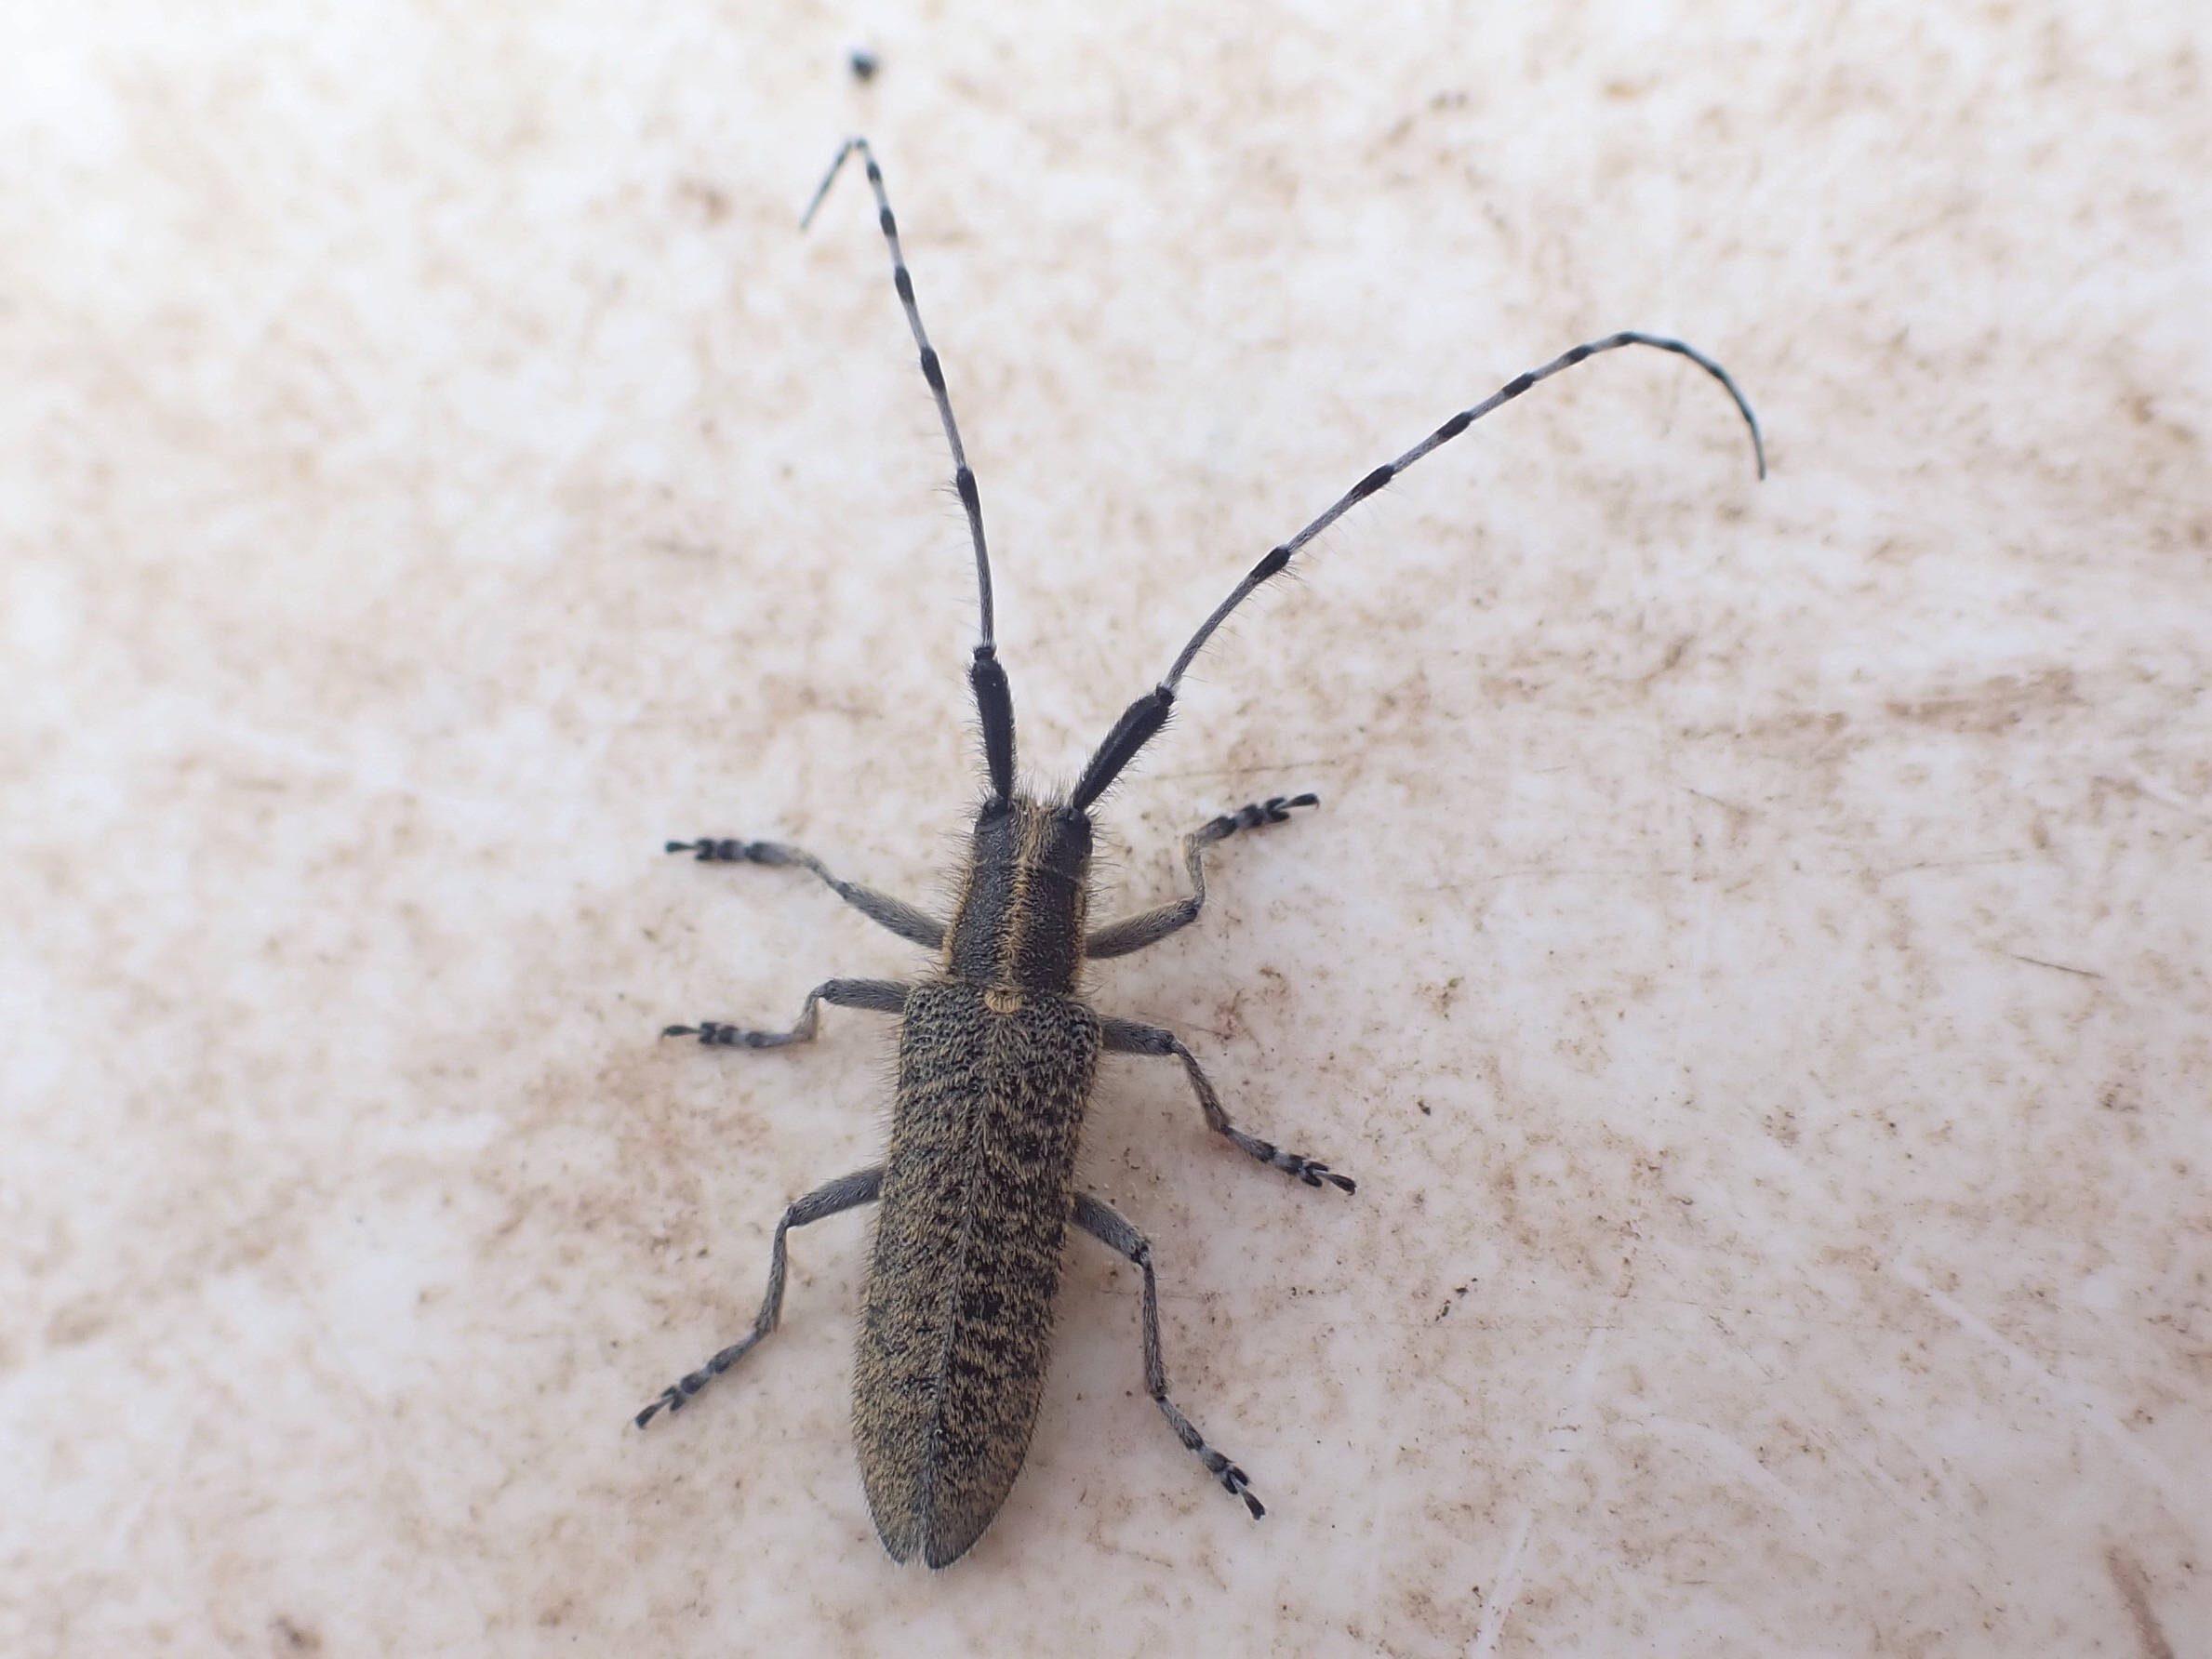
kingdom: Animalia
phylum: Arthropoda
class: Insecta
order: Coleoptera
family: Cerambycidae
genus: Agapanthia
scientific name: Agapanthia villosoviridescens
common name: Tidselbuk
